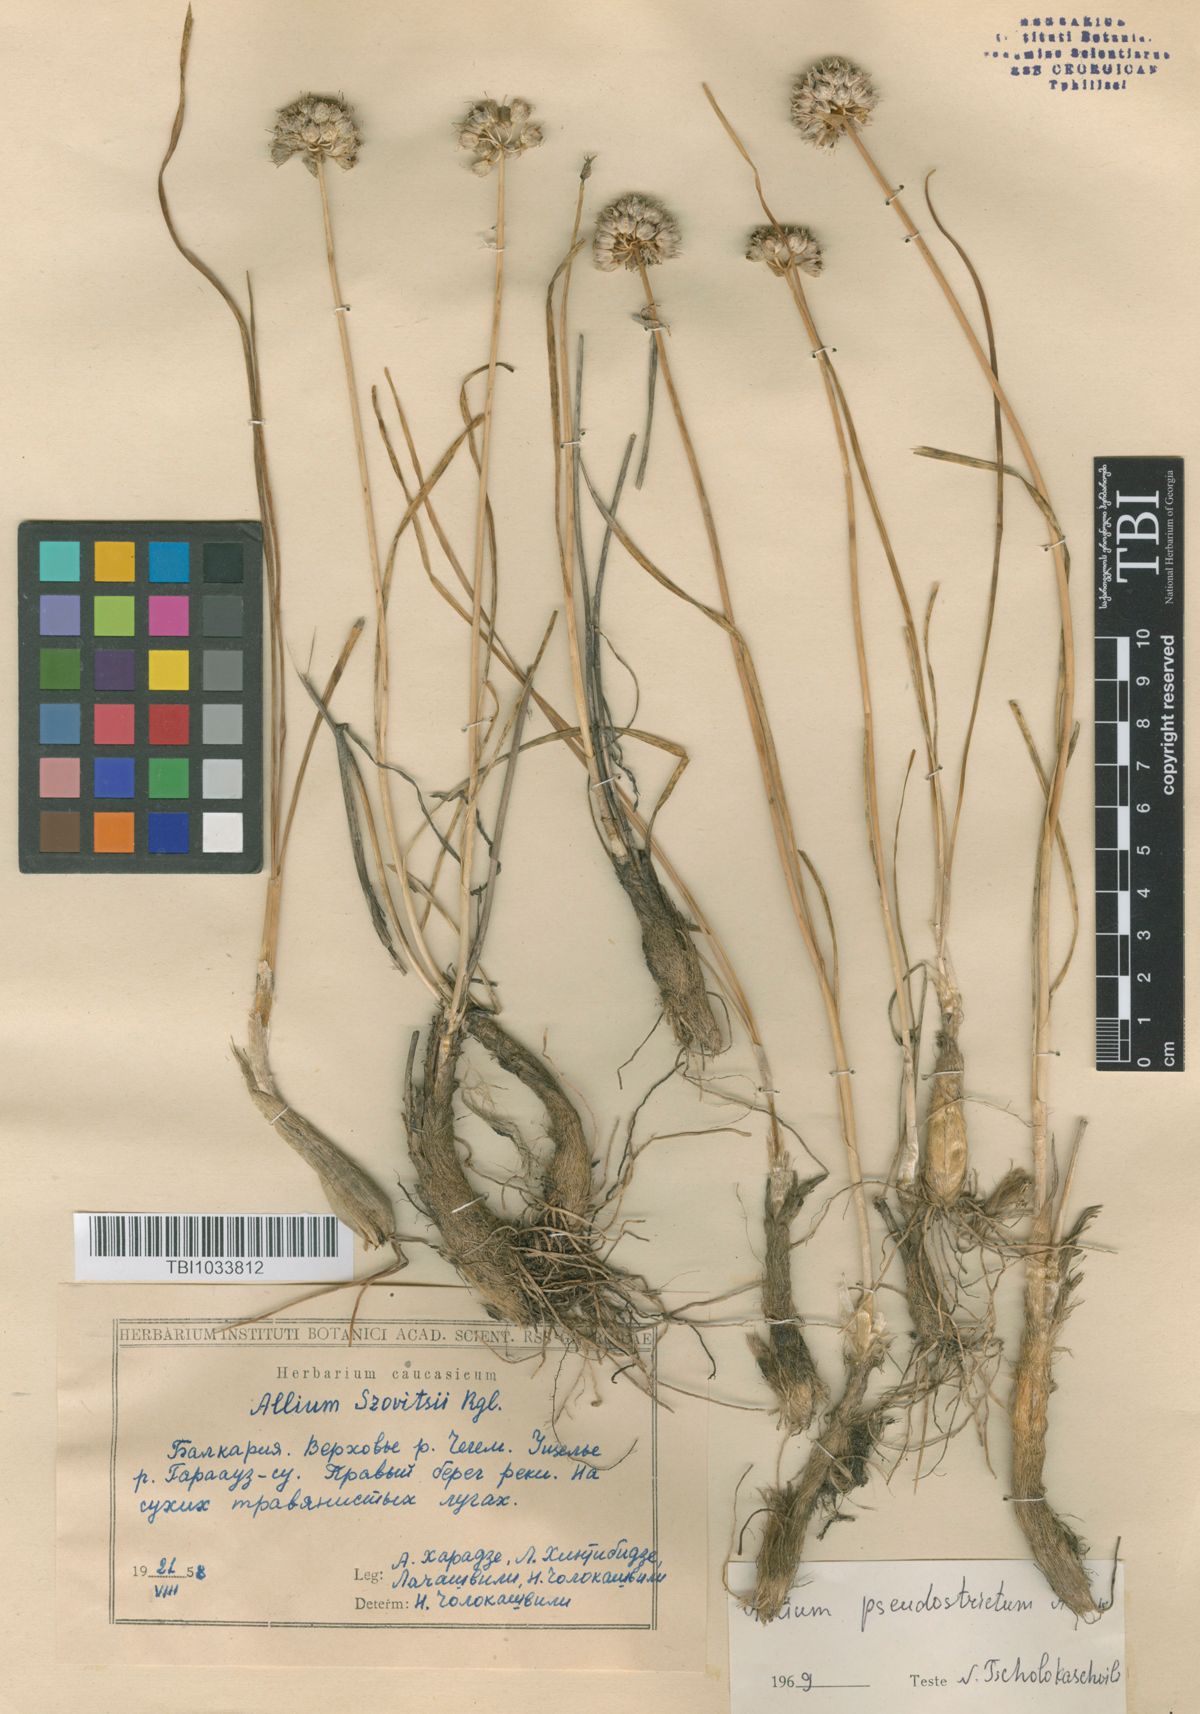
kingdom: Plantae
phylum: Tracheophyta
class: Liliopsida
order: Asparagales
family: Amaryllidaceae
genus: Allium
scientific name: Allium pseudostrictum
